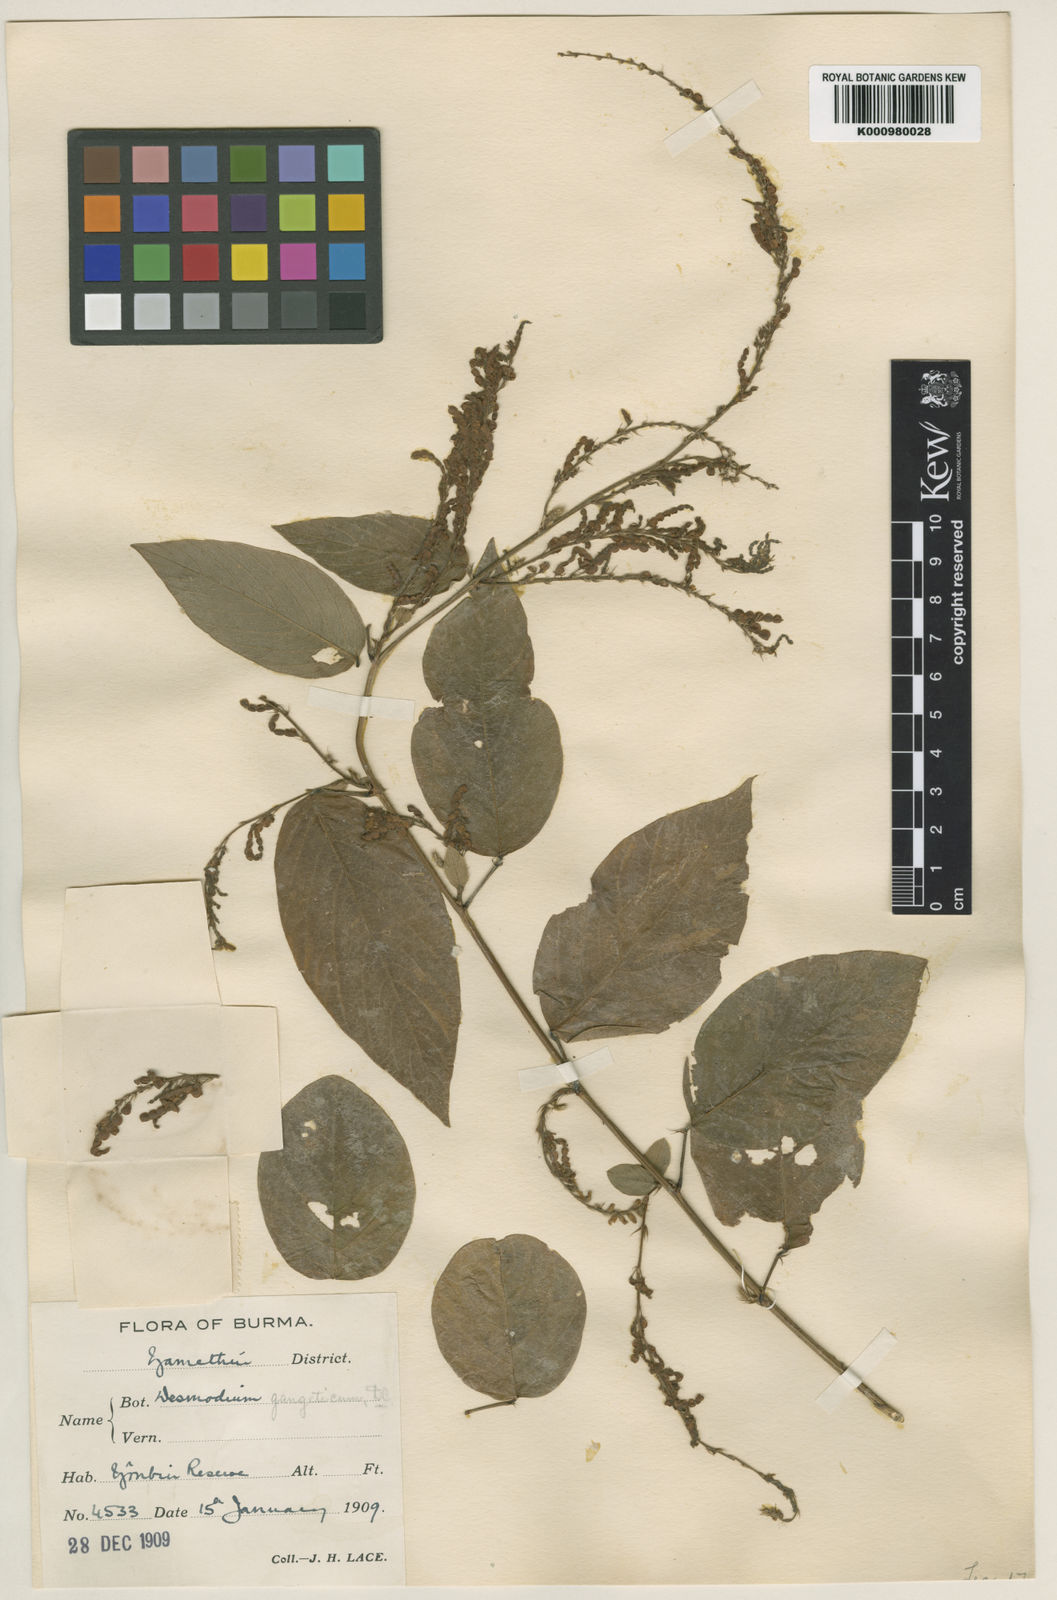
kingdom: Plantae
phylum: Tracheophyta
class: Magnoliopsida
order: Fabales
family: Fabaceae
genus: Pleurolobus
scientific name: Pleurolobus gangeticus
